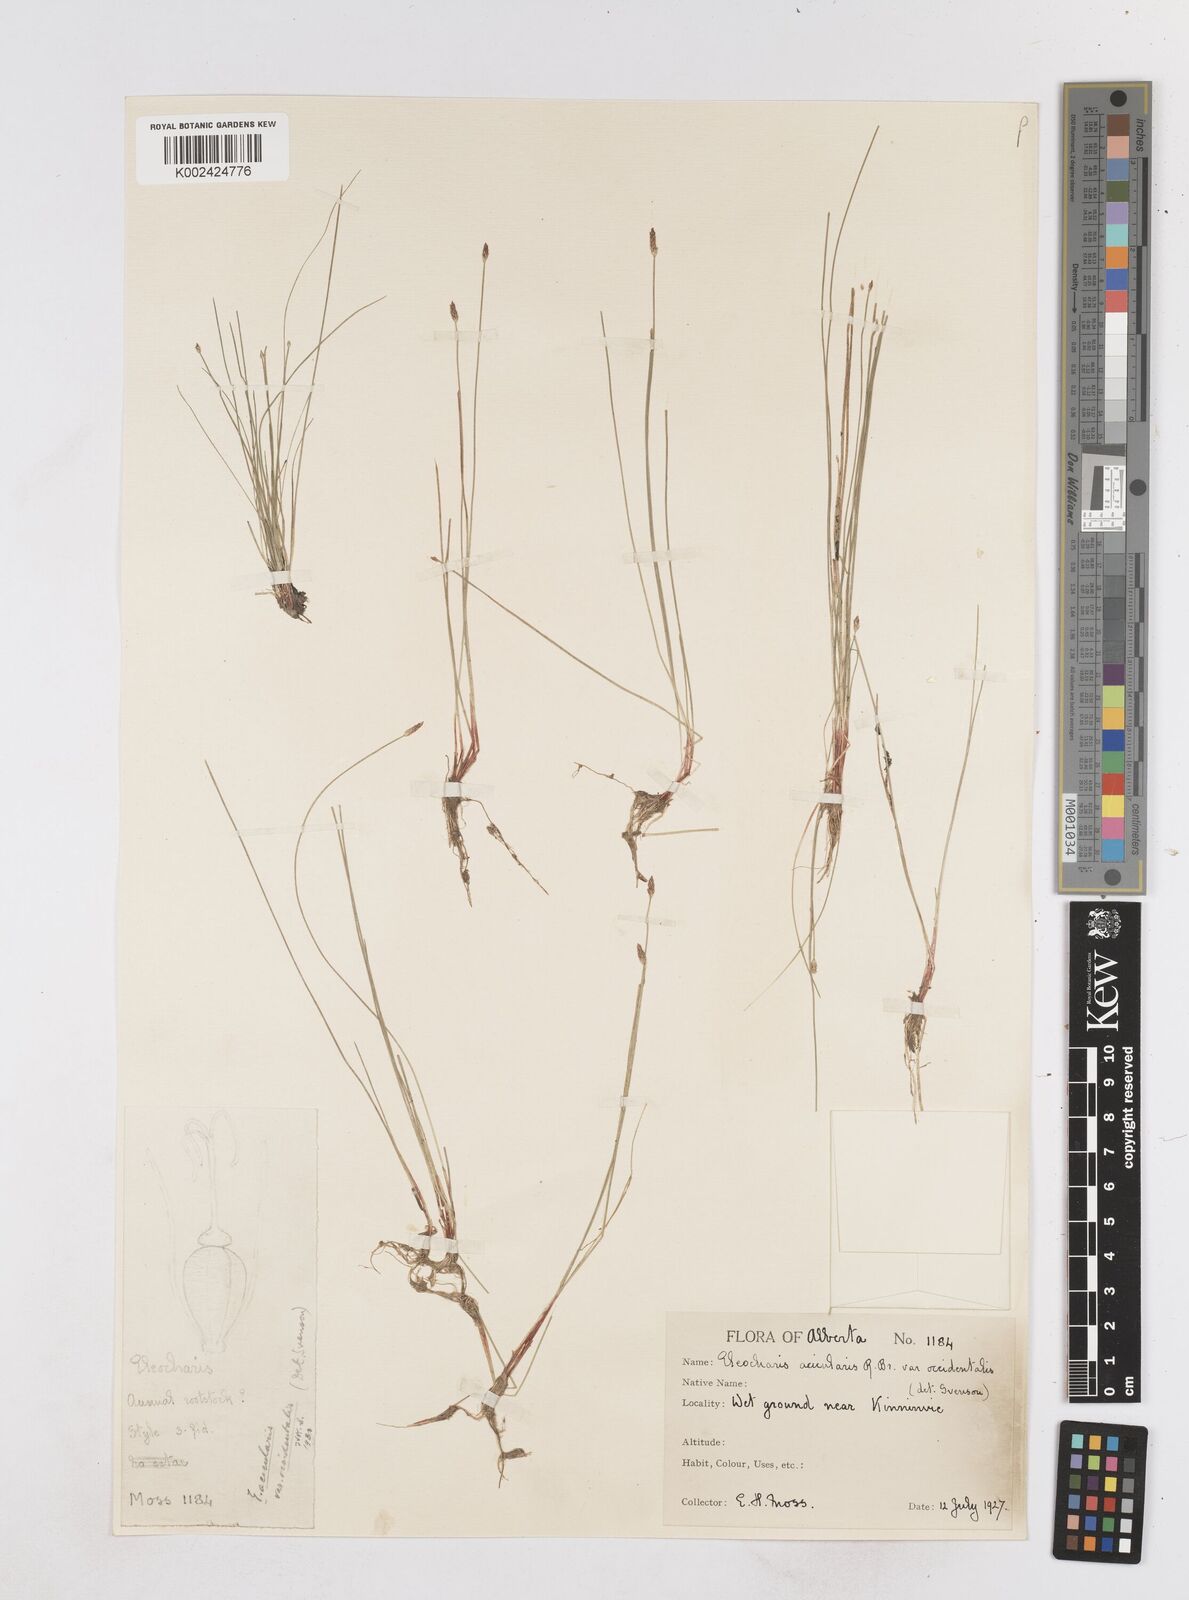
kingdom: Plantae
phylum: Tracheophyta
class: Liliopsida
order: Poales
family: Cyperaceae
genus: Eleocharis
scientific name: Eleocharis acicularis
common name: Needle spike-rush
